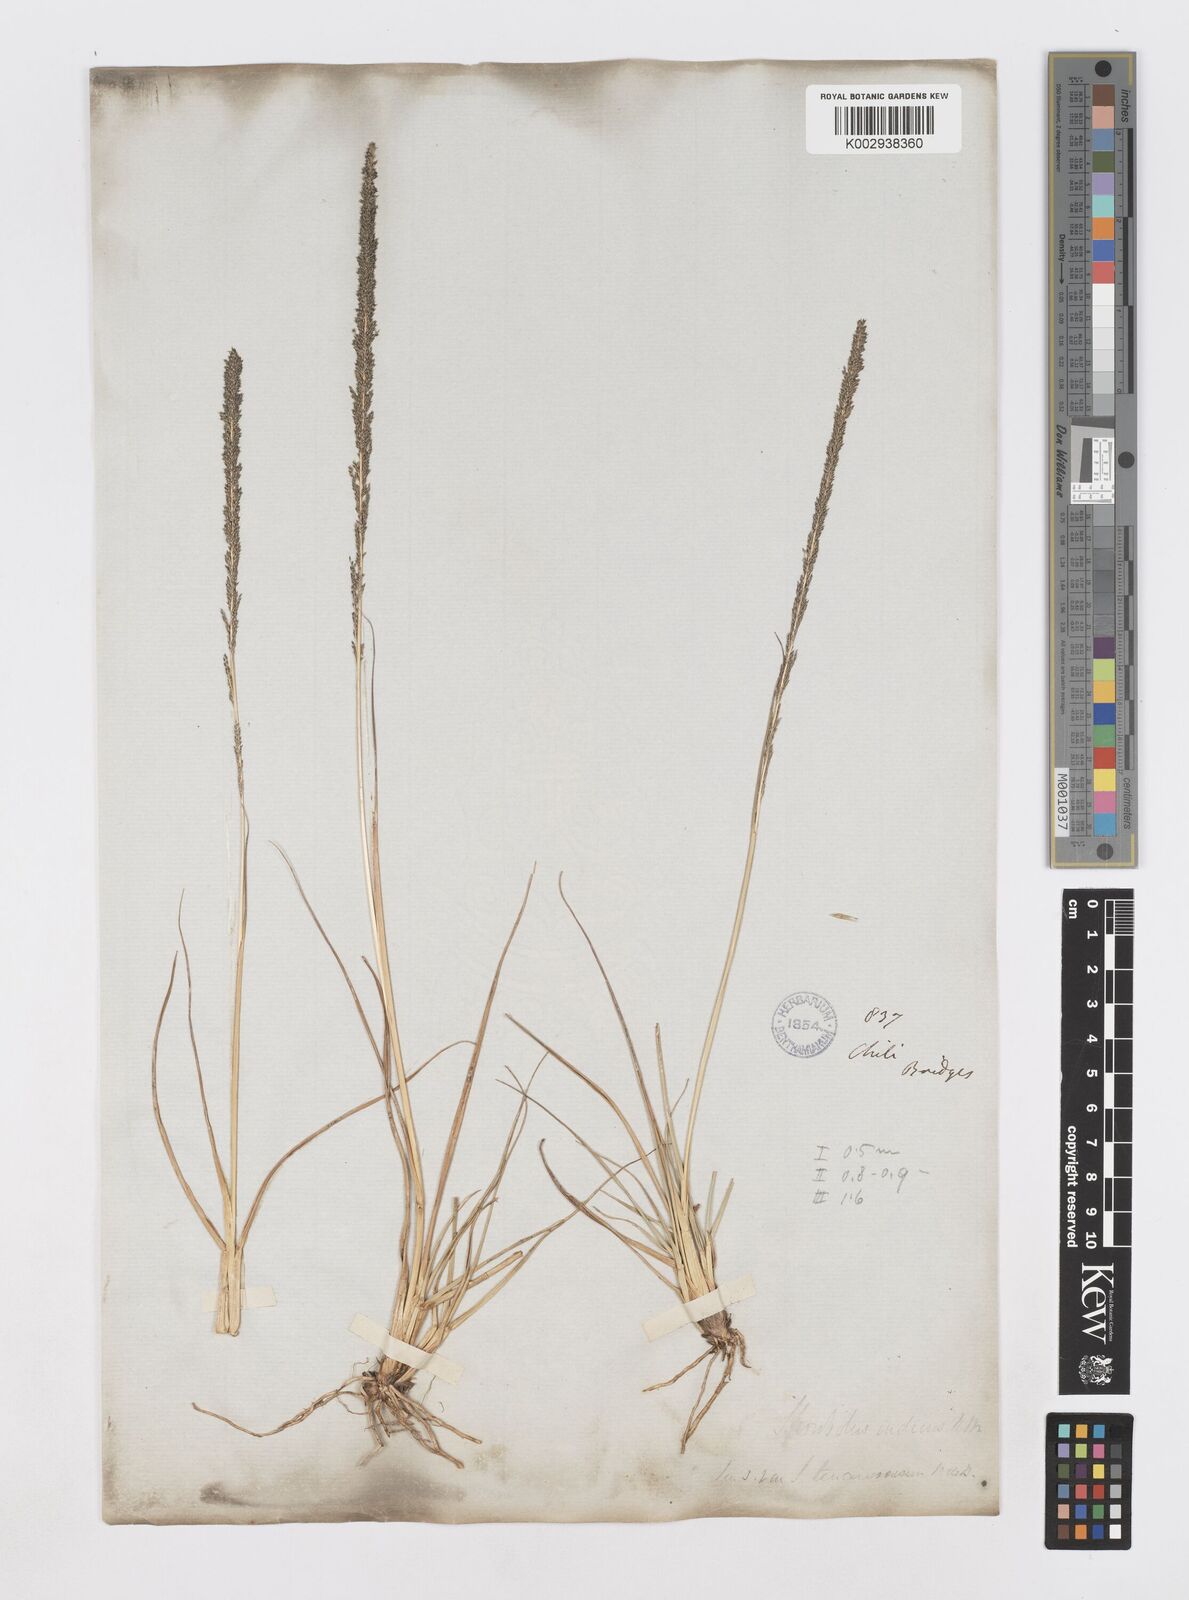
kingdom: Plantae
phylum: Tracheophyta
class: Liliopsida
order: Poales
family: Poaceae
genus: Sporobolus
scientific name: Sporobolus pyramidalis
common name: West indian dropseed
